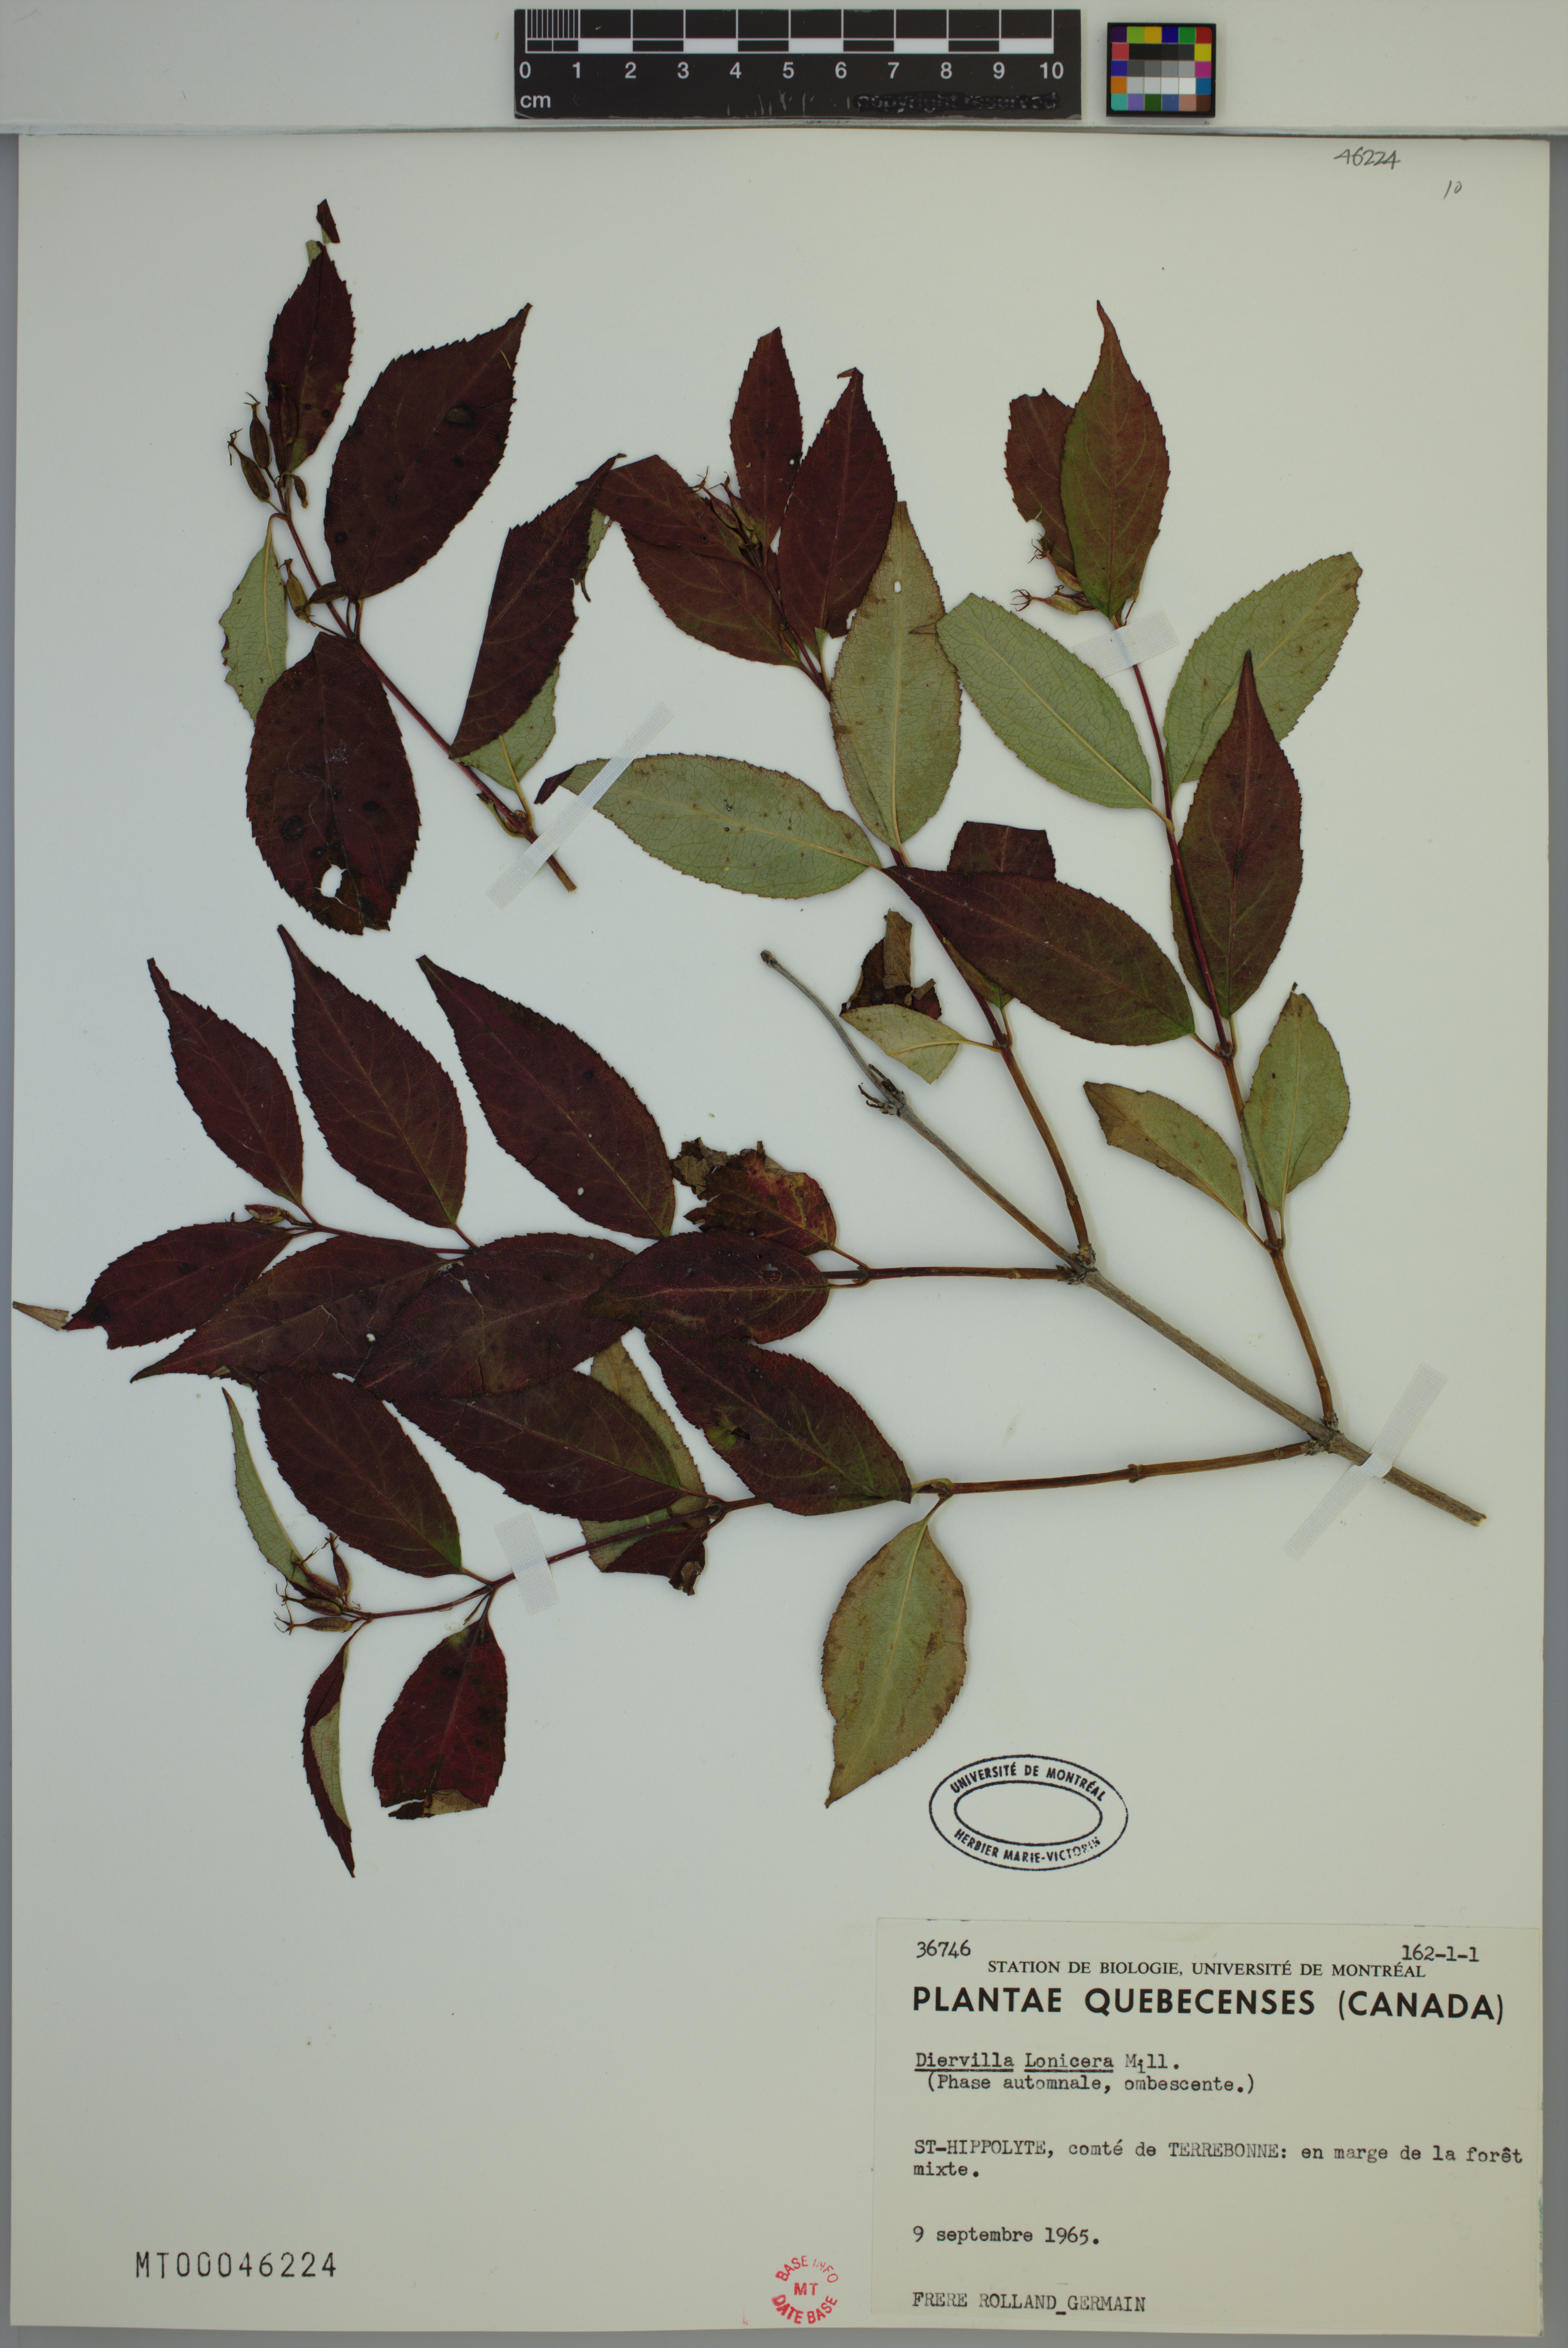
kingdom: Plantae
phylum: Tracheophyta
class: Magnoliopsida
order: Dipsacales
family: Caprifoliaceae
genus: Diervilla
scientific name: Diervilla lonicera
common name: Bush-honeysuckle
